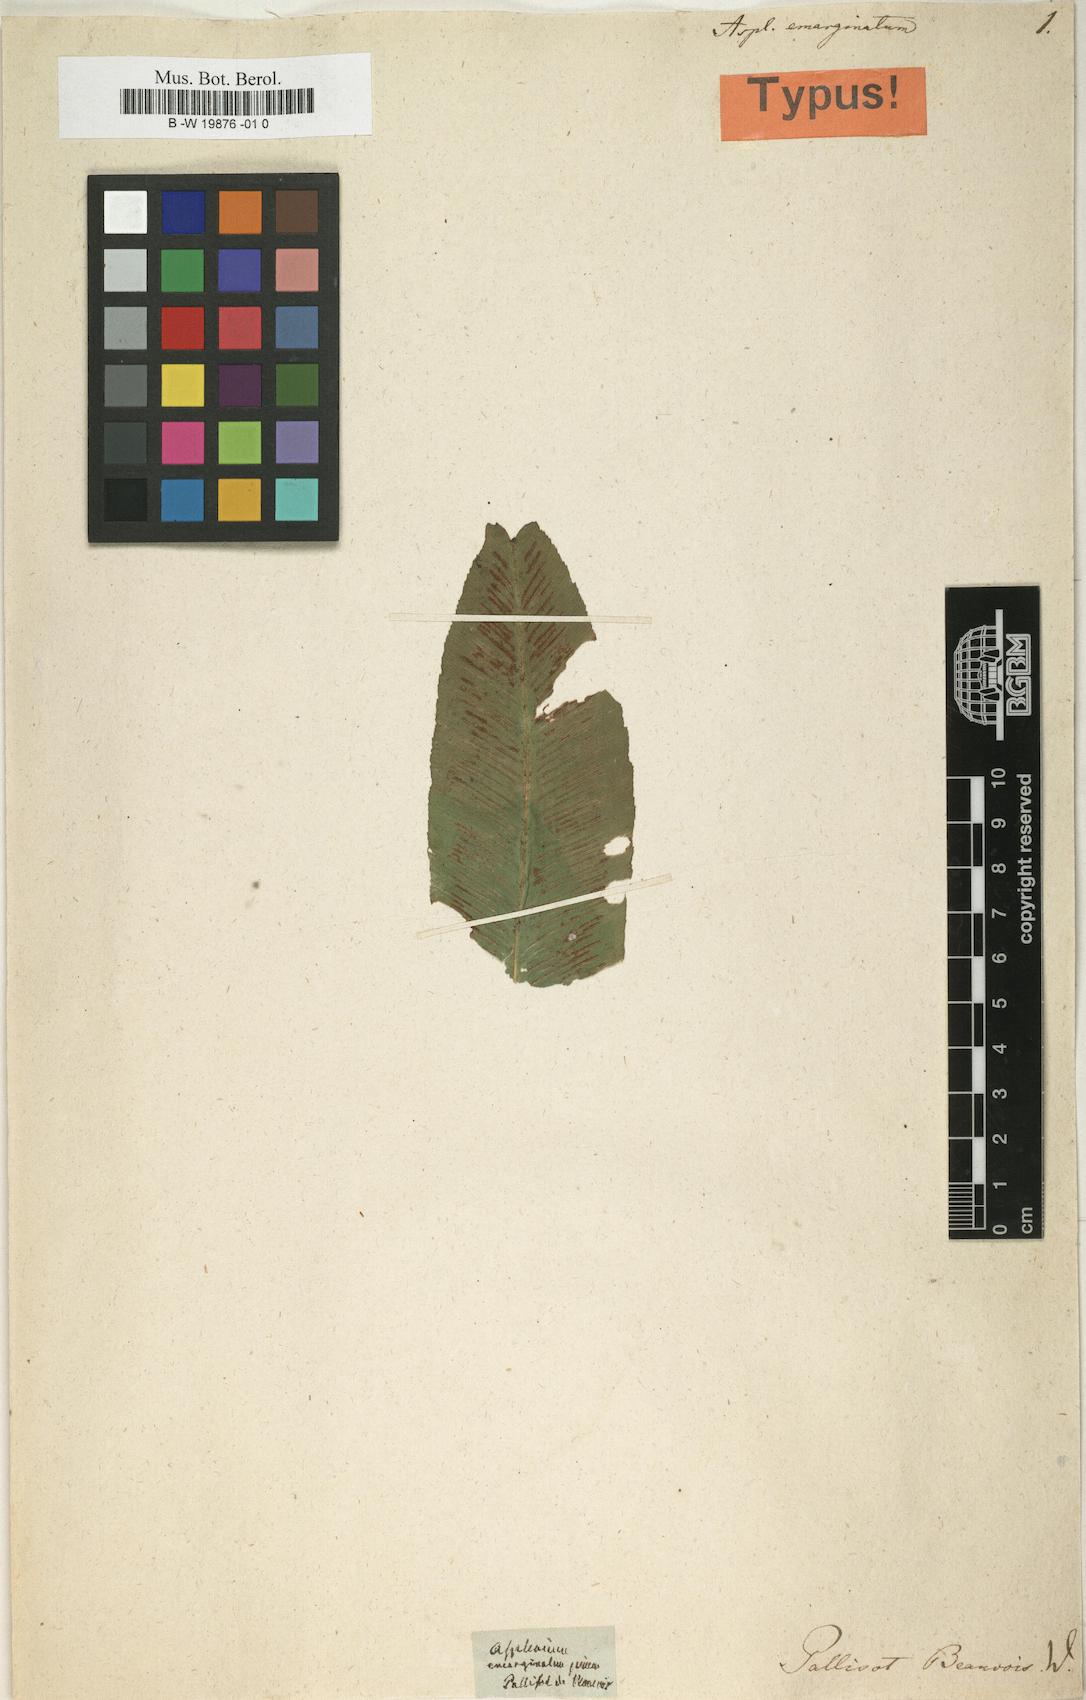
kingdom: Plantae
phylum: Tracheophyta
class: Polypodiopsida
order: Polypodiales
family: Aspleniaceae
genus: Asplenium
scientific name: Asplenium emarginatum
